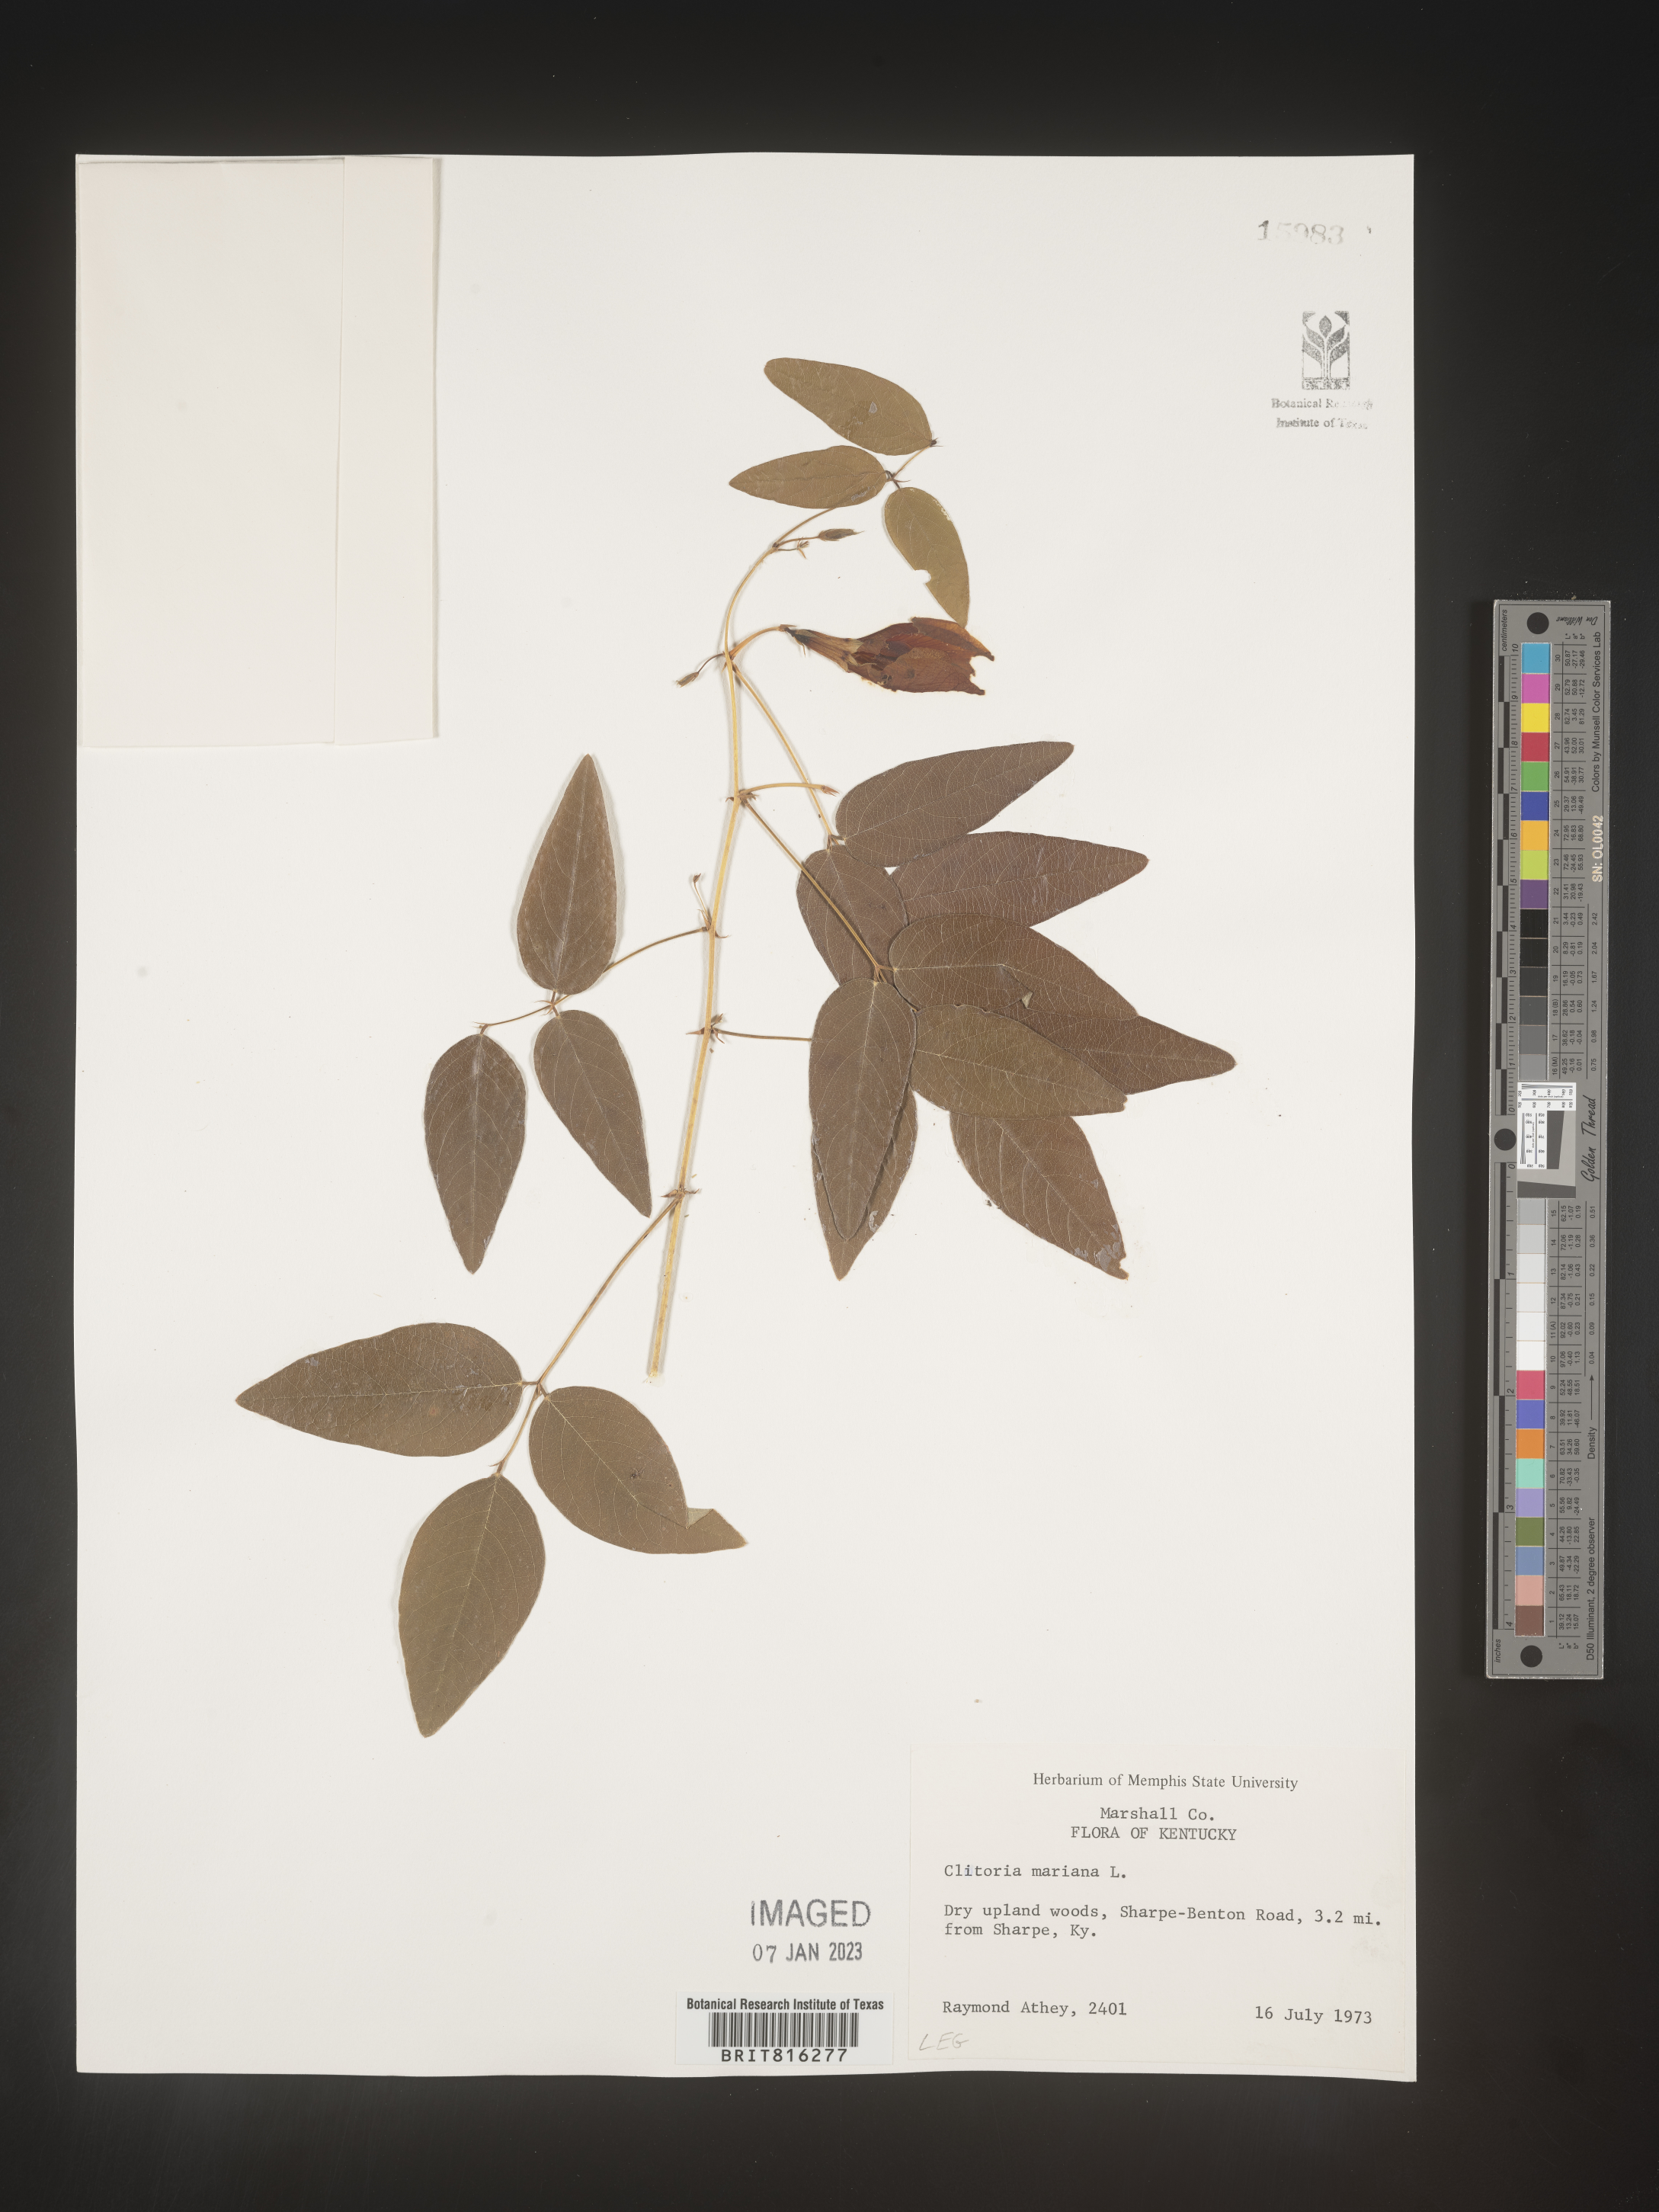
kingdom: Plantae
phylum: Tracheophyta
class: Magnoliopsida
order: Fabales
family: Fabaceae
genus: Clitoria
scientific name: Clitoria mariana
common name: Butterfly-pea
